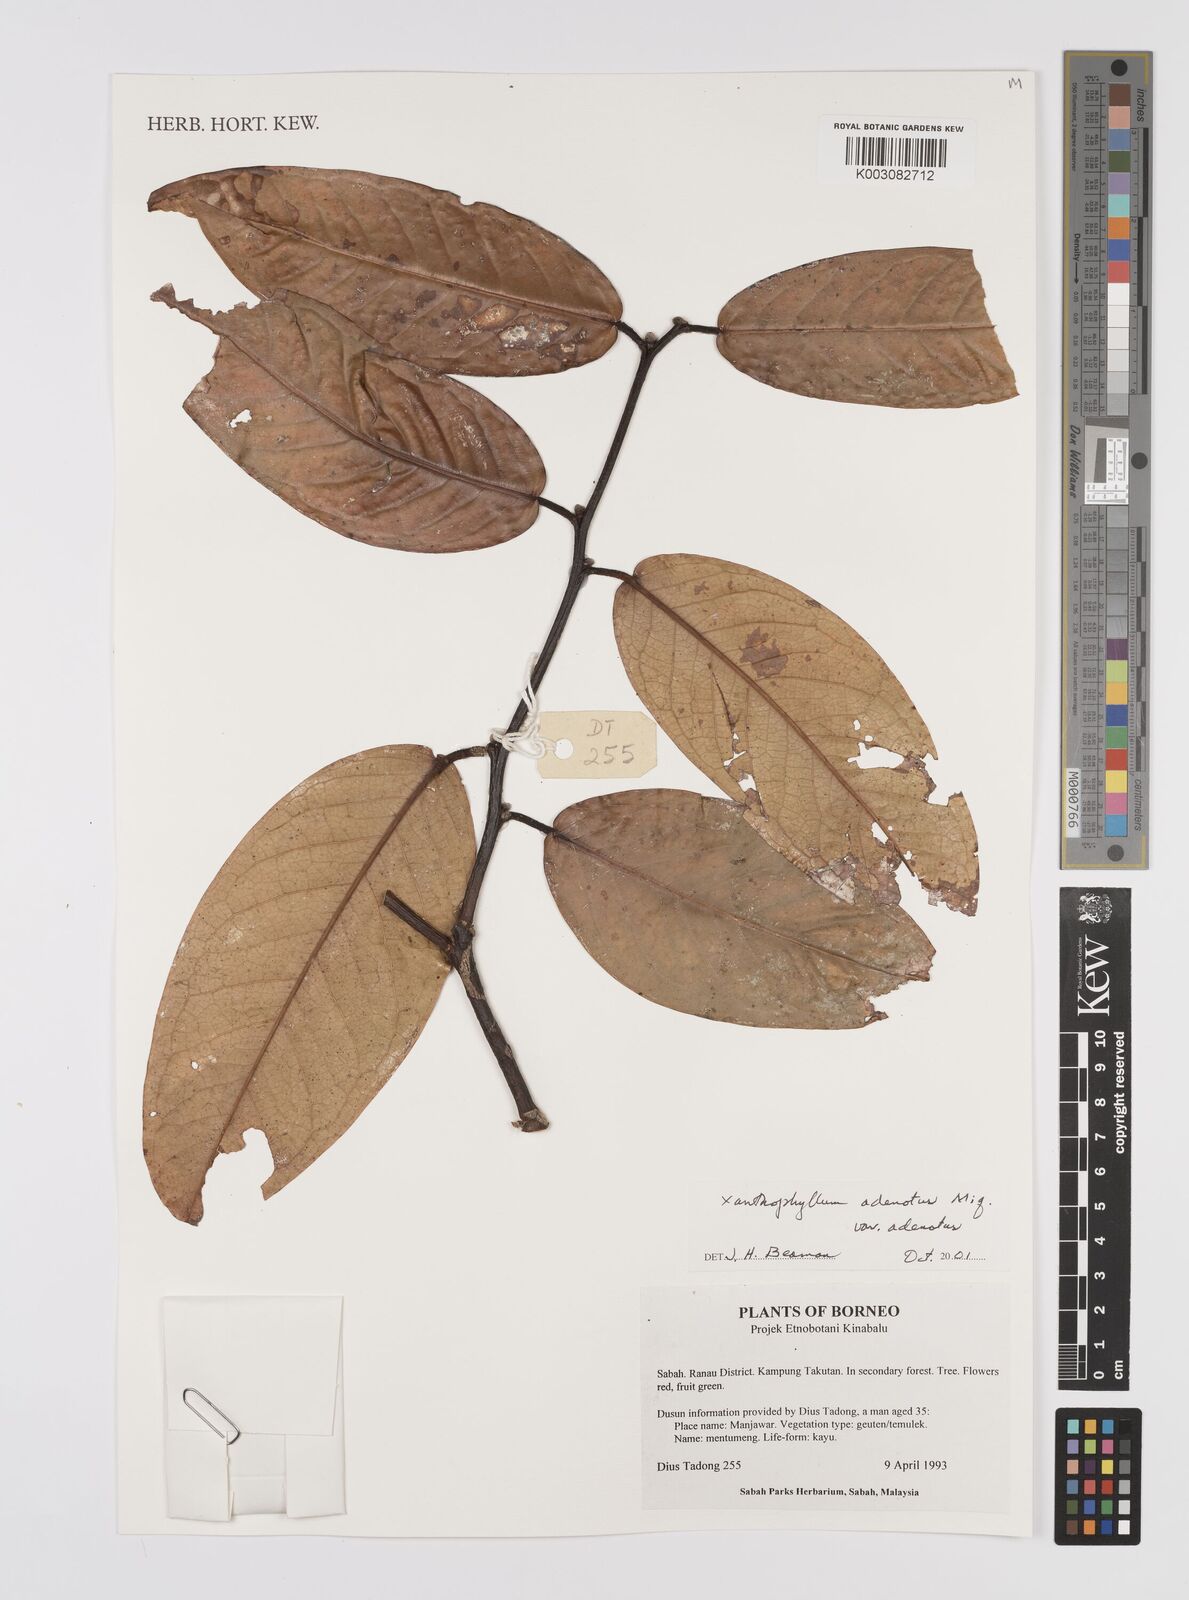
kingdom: Plantae
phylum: Tracheophyta
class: Magnoliopsida
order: Fabales
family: Polygalaceae
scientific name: Polygalaceae
